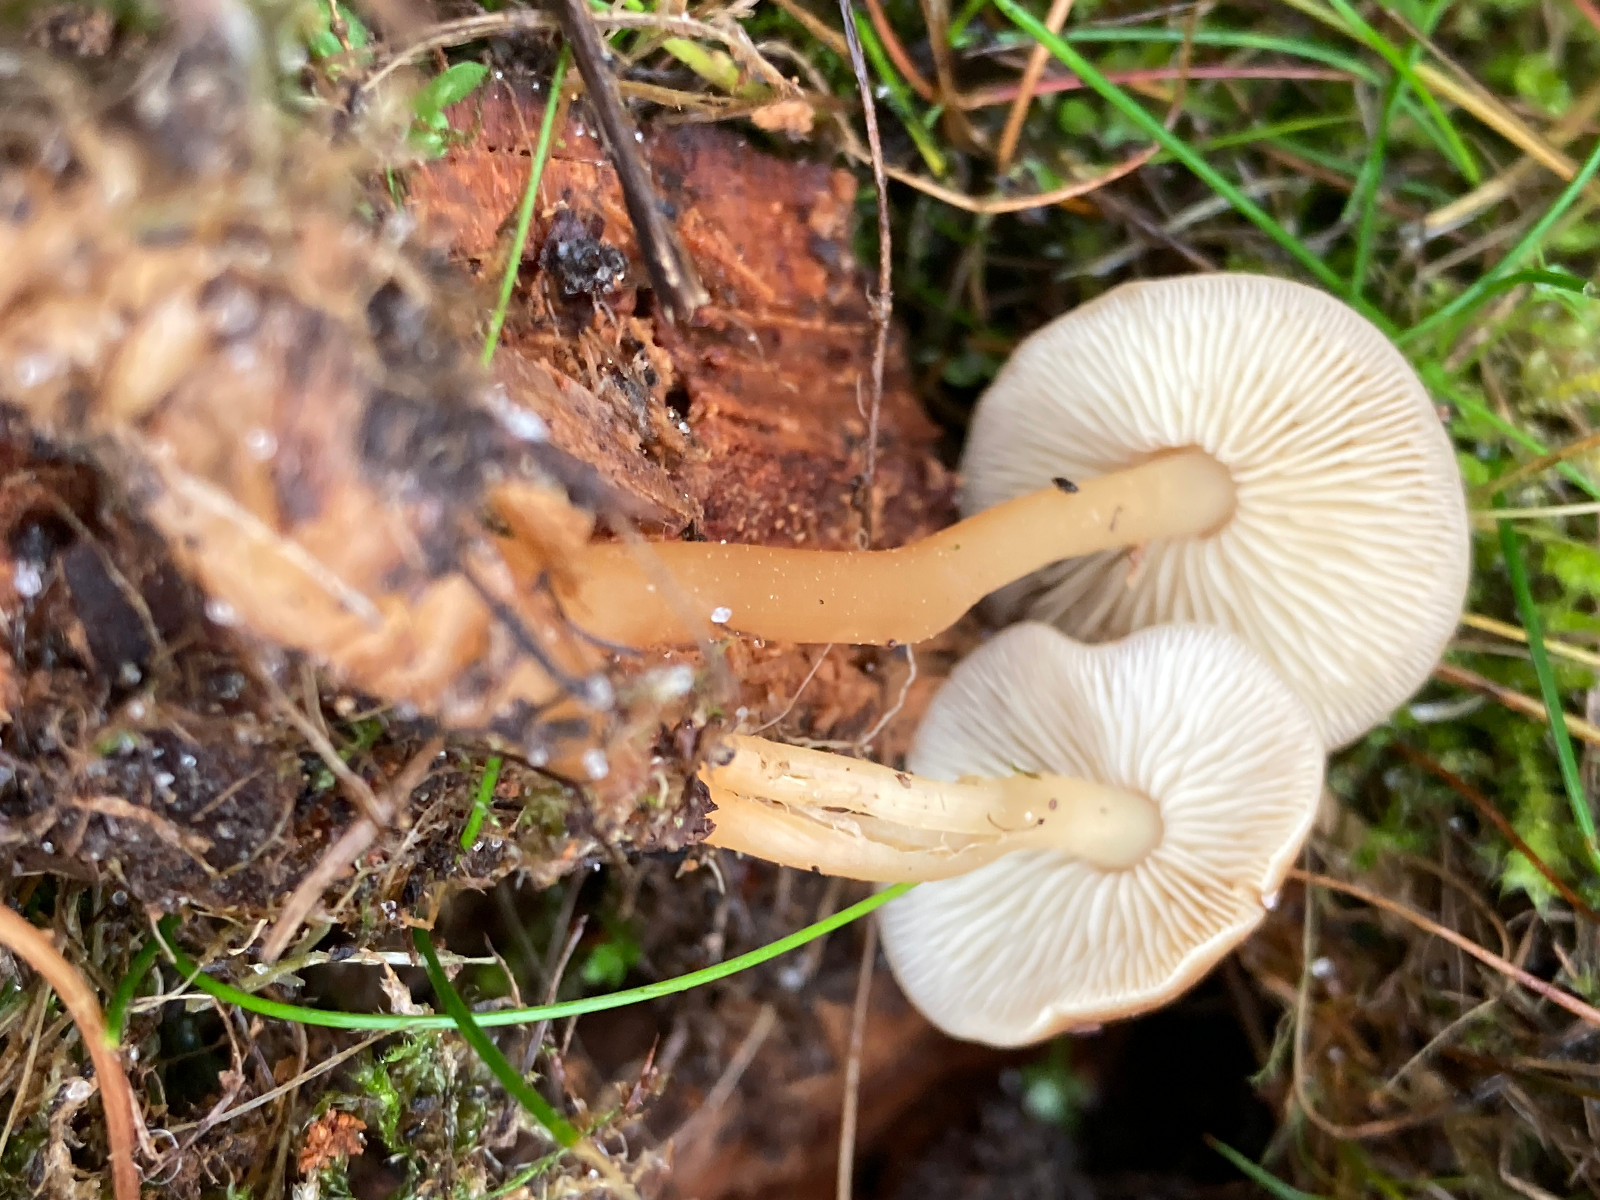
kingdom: Fungi
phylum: Basidiomycota
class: Agaricomycetes
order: Agaricales
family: Omphalotaceae
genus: Gymnopus
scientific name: Gymnopus
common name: fladhat
